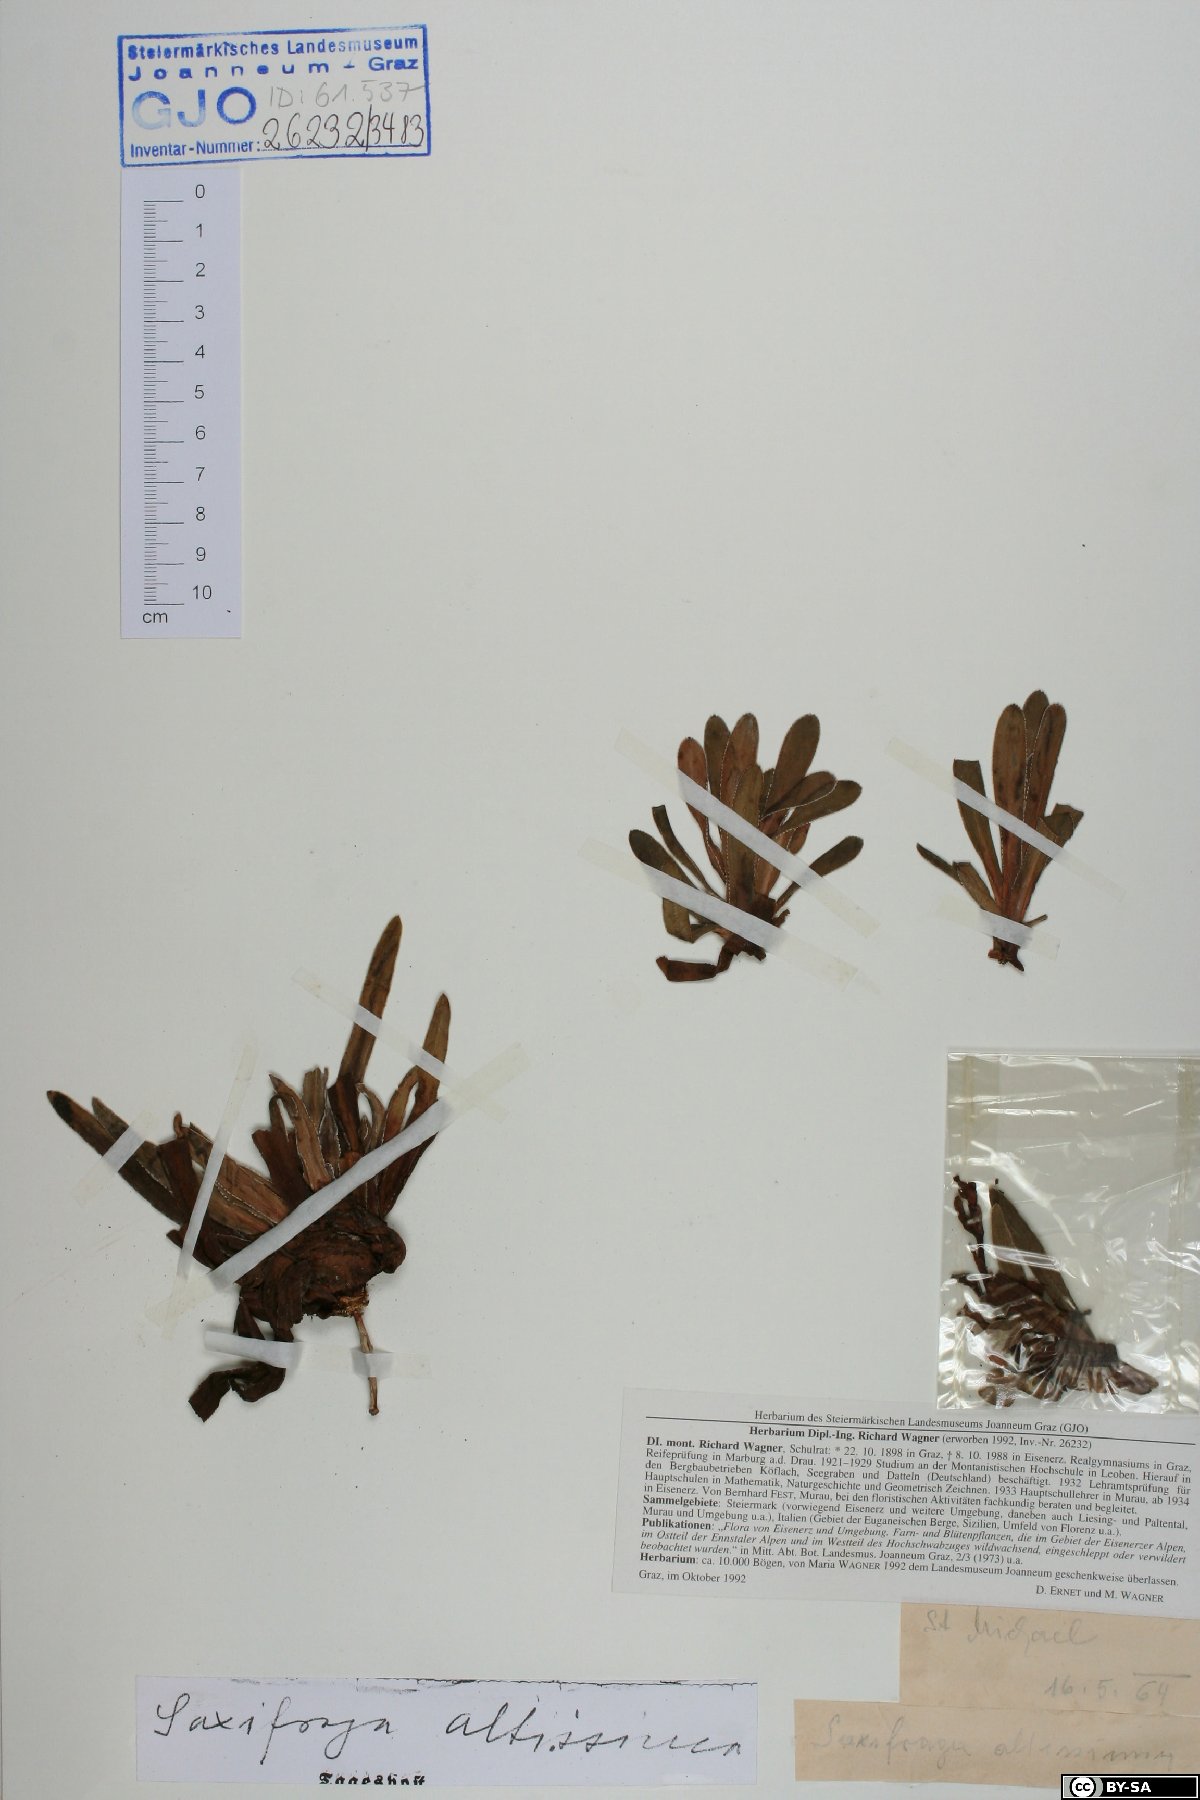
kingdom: Plantae
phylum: Tracheophyta
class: Magnoliopsida
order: Saxifragales
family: Saxifragaceae
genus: Saxifraga
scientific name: Saxifraga hostii
